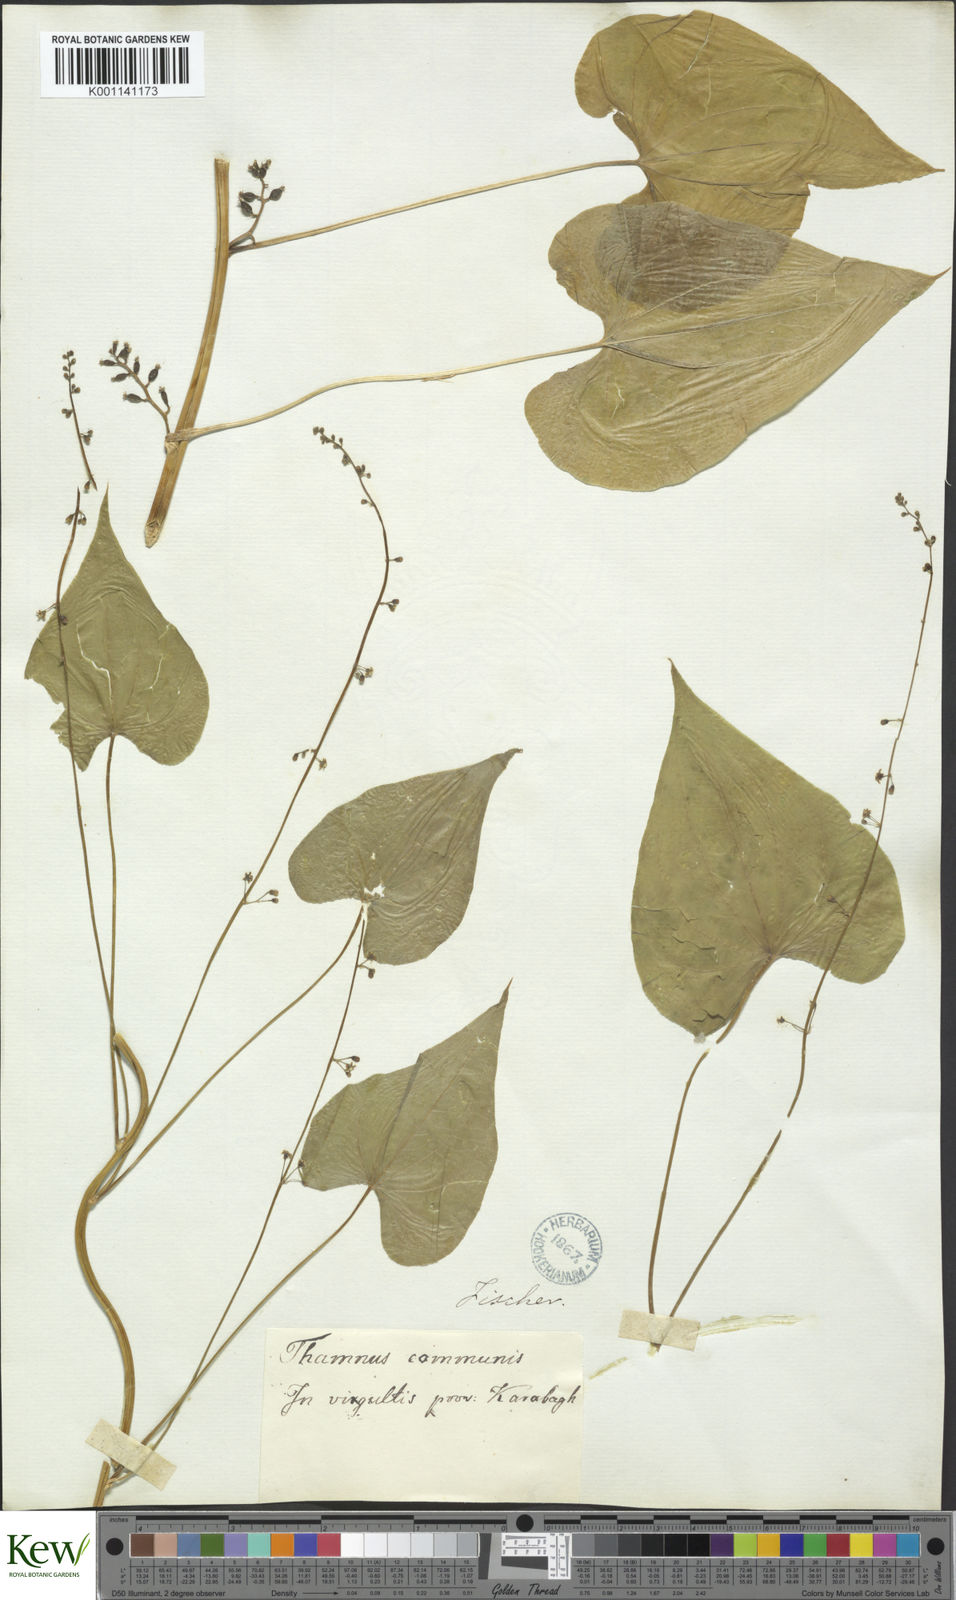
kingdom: Plantae
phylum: Tracheophyta
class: Liliopsida
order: Dioscoreales
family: Dioscoreaceae
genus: Dioscorea
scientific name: Dioscorea communis
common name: Black-bindweed
